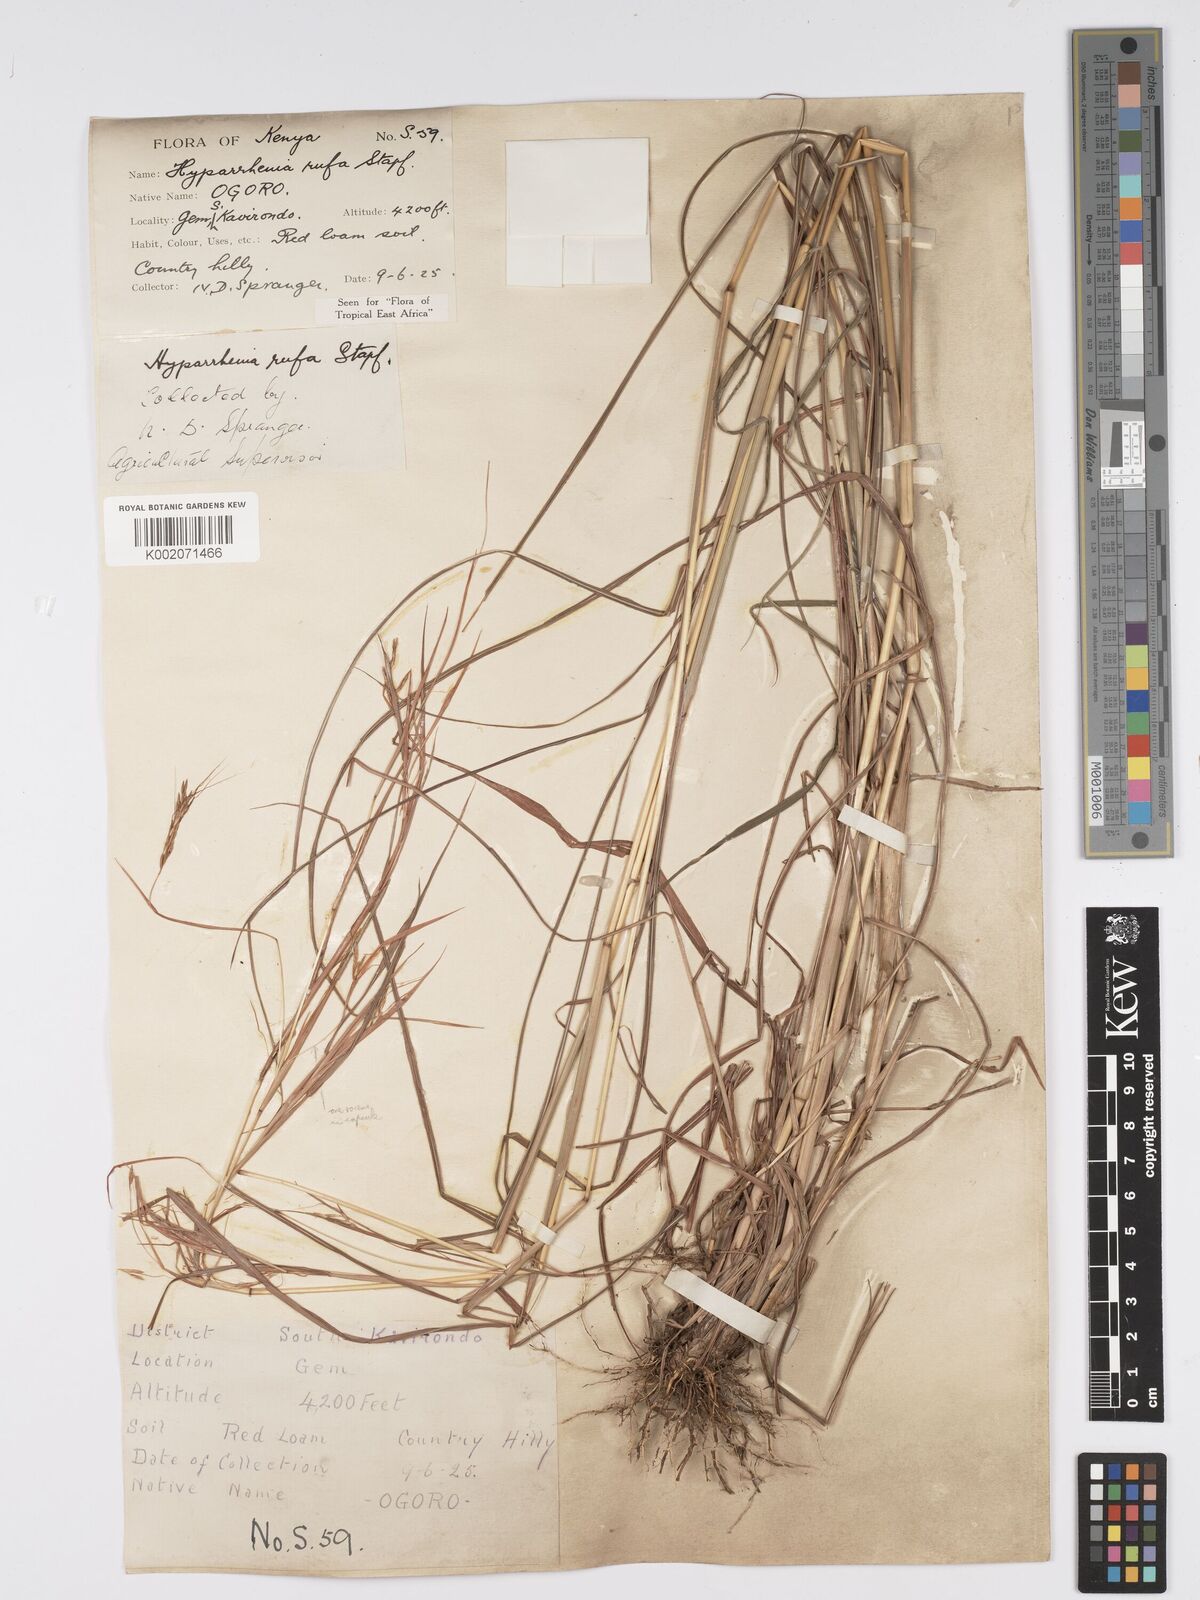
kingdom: Plantae
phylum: Tracheophyta
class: Liliopsida
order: Poales
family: Poaceae
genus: Hyparrhenia
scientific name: Hyparrhenia rufa
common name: Jaraguagrass
